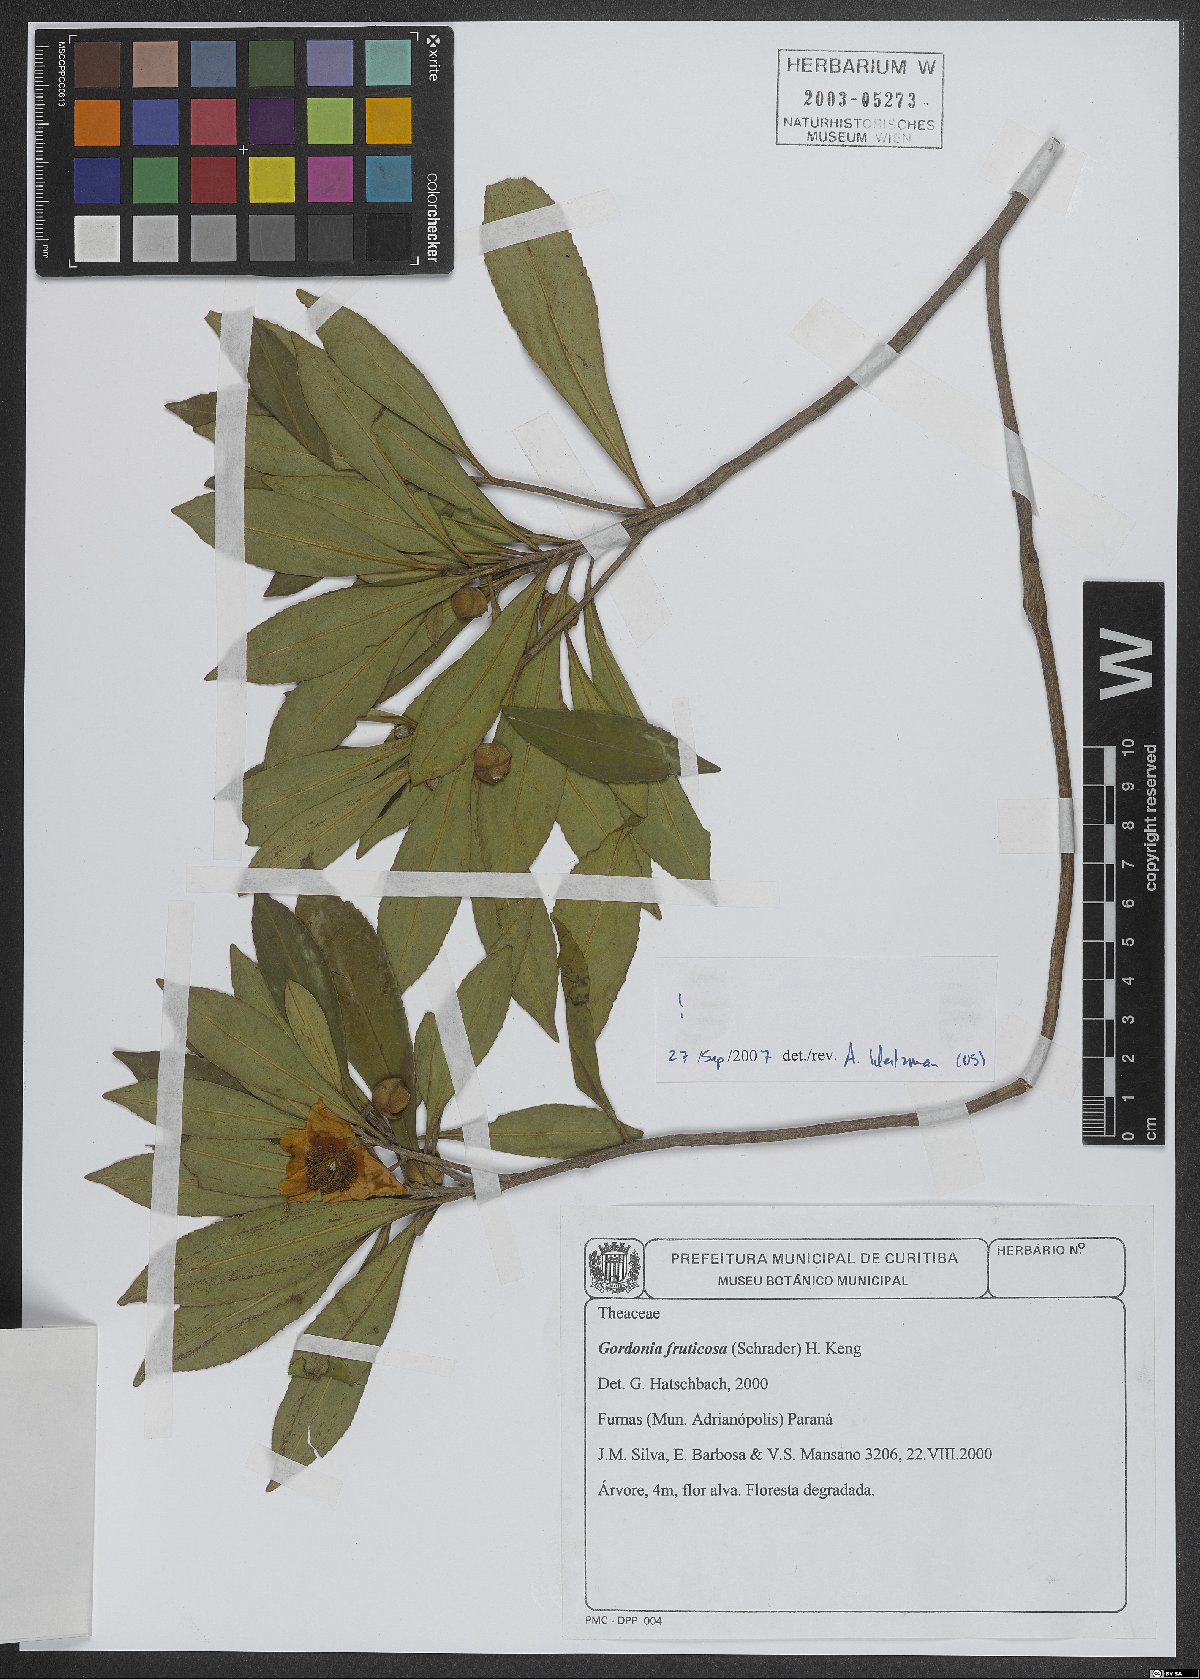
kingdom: Plantae
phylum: Tracheophyta
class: Magnoliopsida
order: Ericales
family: Theaceae
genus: Gordonia
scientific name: Gordonia fruticosa
